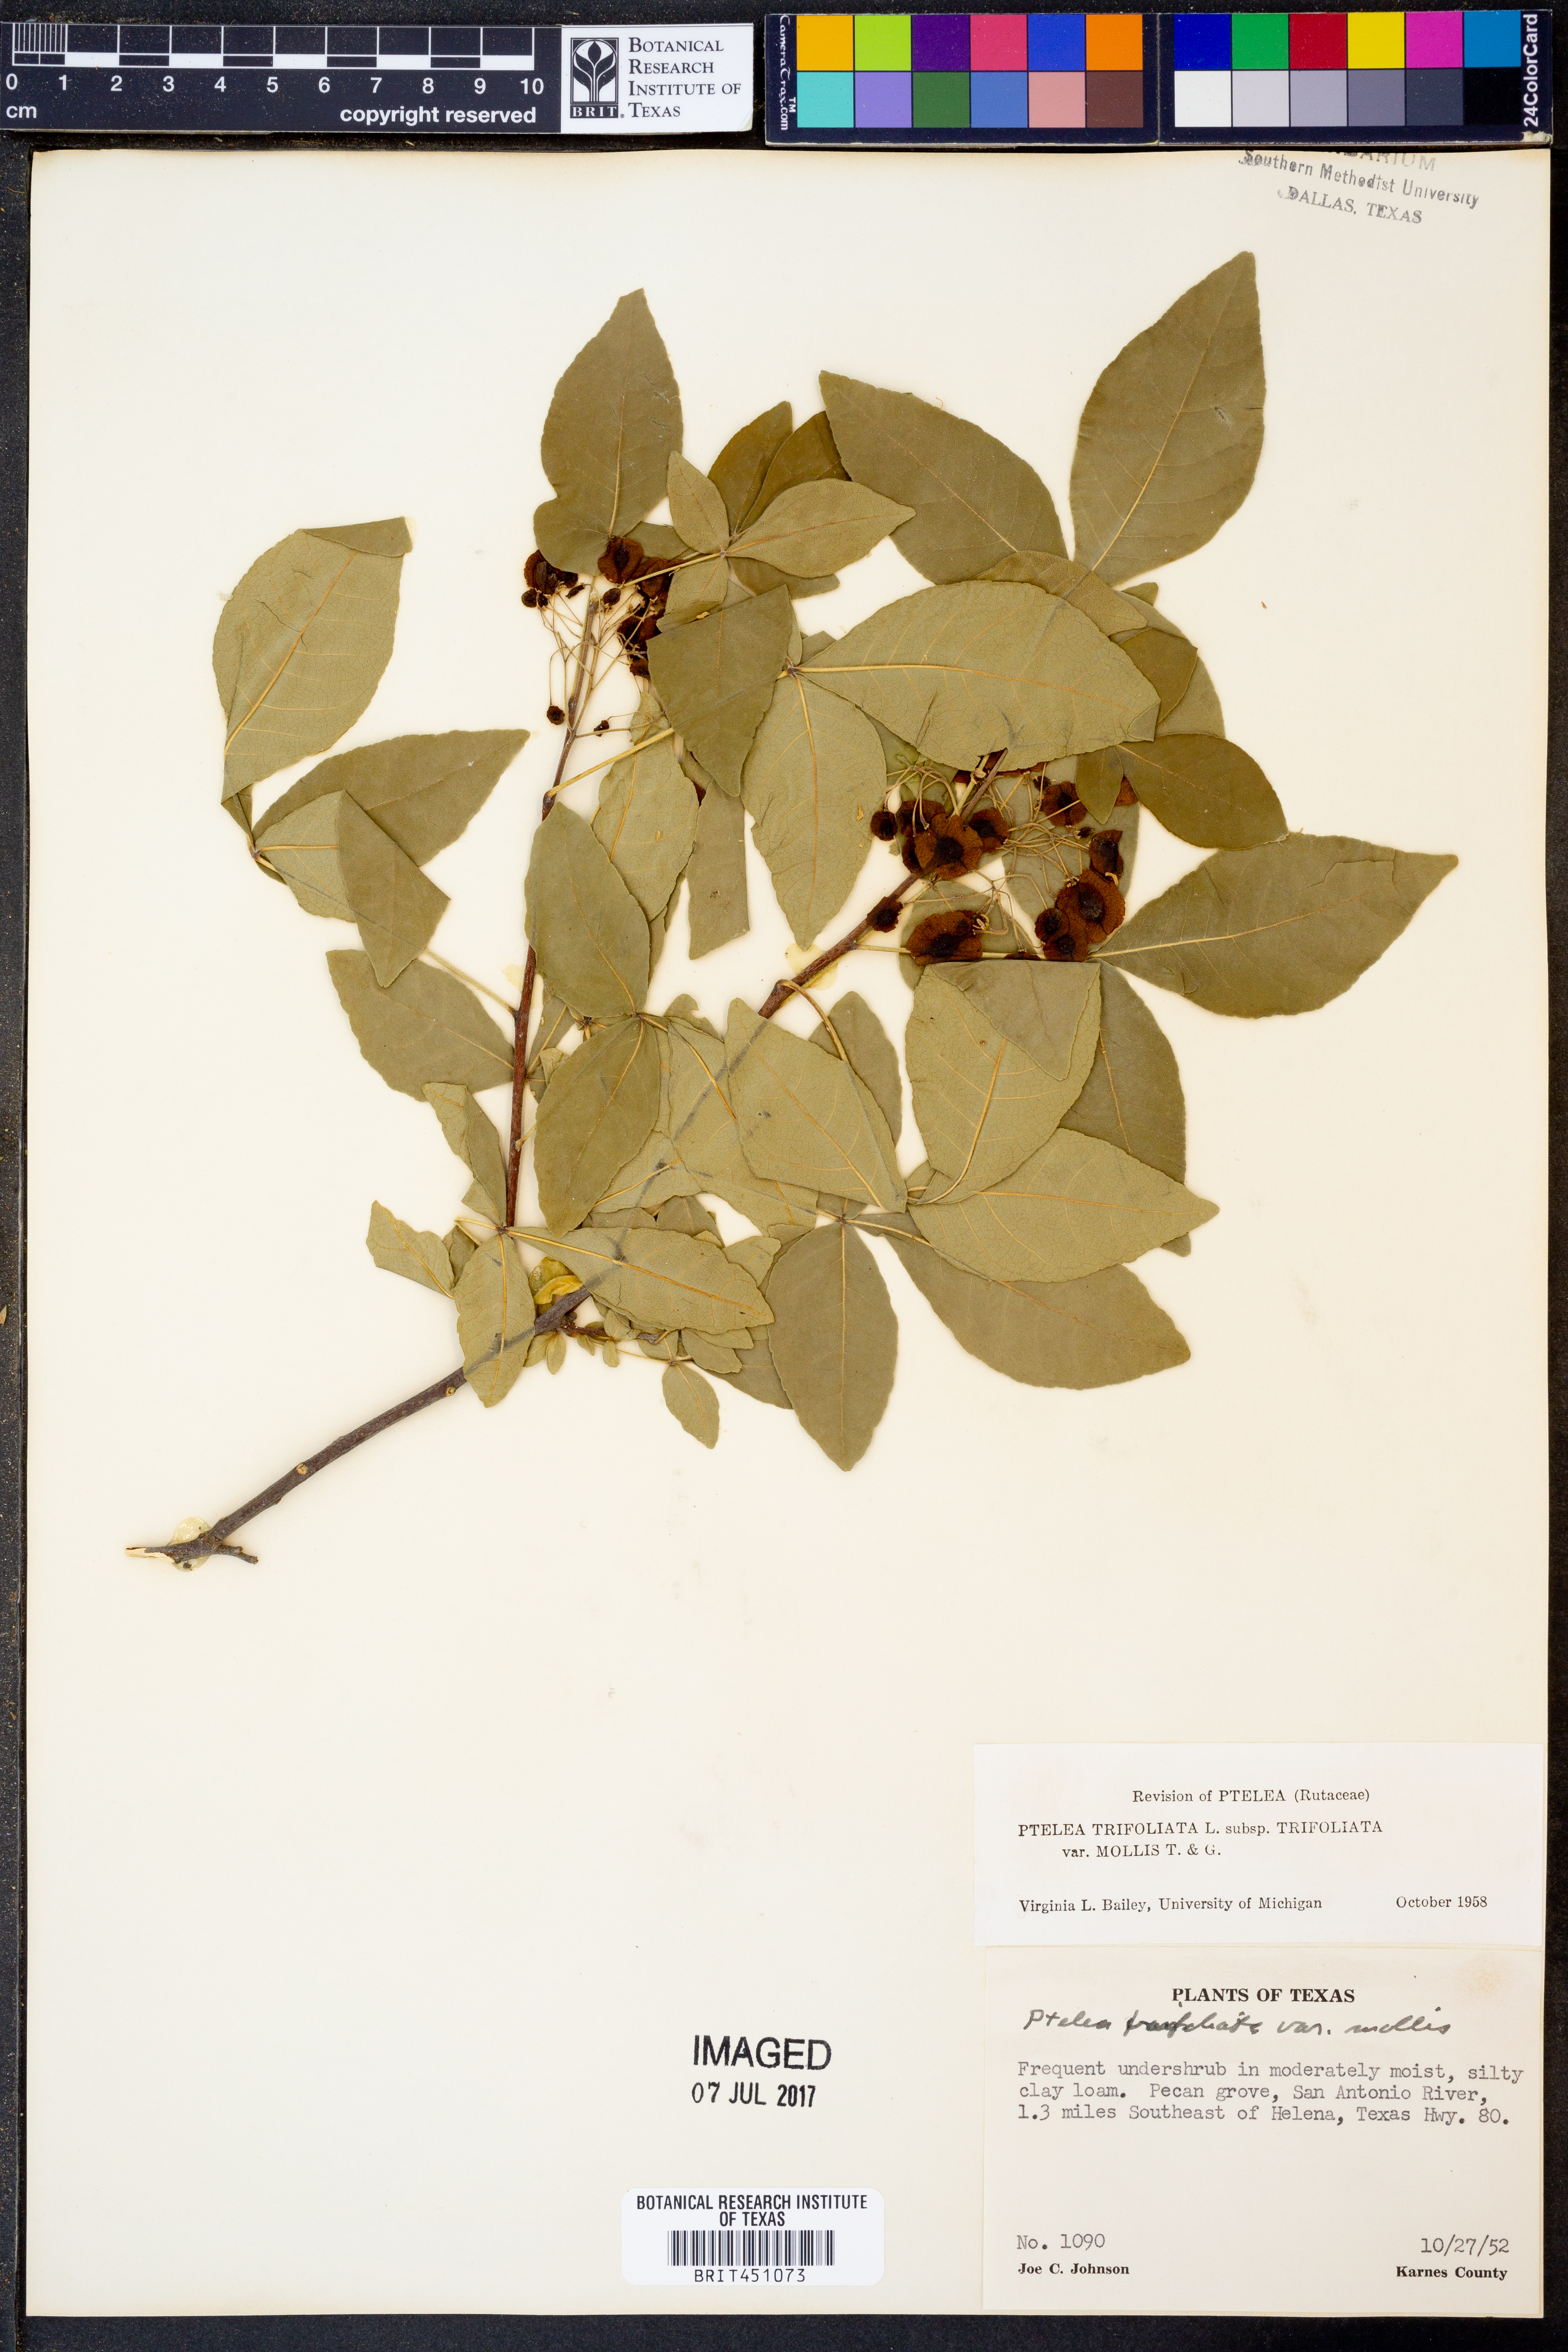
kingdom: Plantae
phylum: Tracheophyta
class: Magnoliopsida
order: Sapindales
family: Rutaceae
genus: Ptelea
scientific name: Ptelea trifoliata
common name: Common hop-tree
